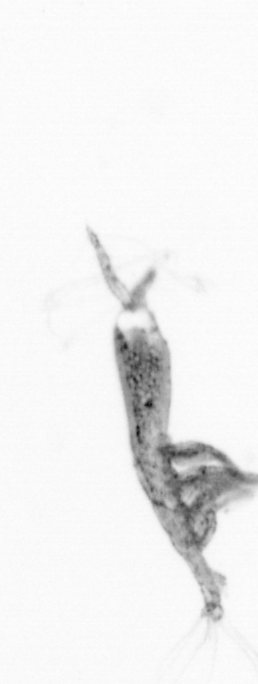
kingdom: Animalia
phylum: Arthropoda
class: Copepoda
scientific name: Copepoda
